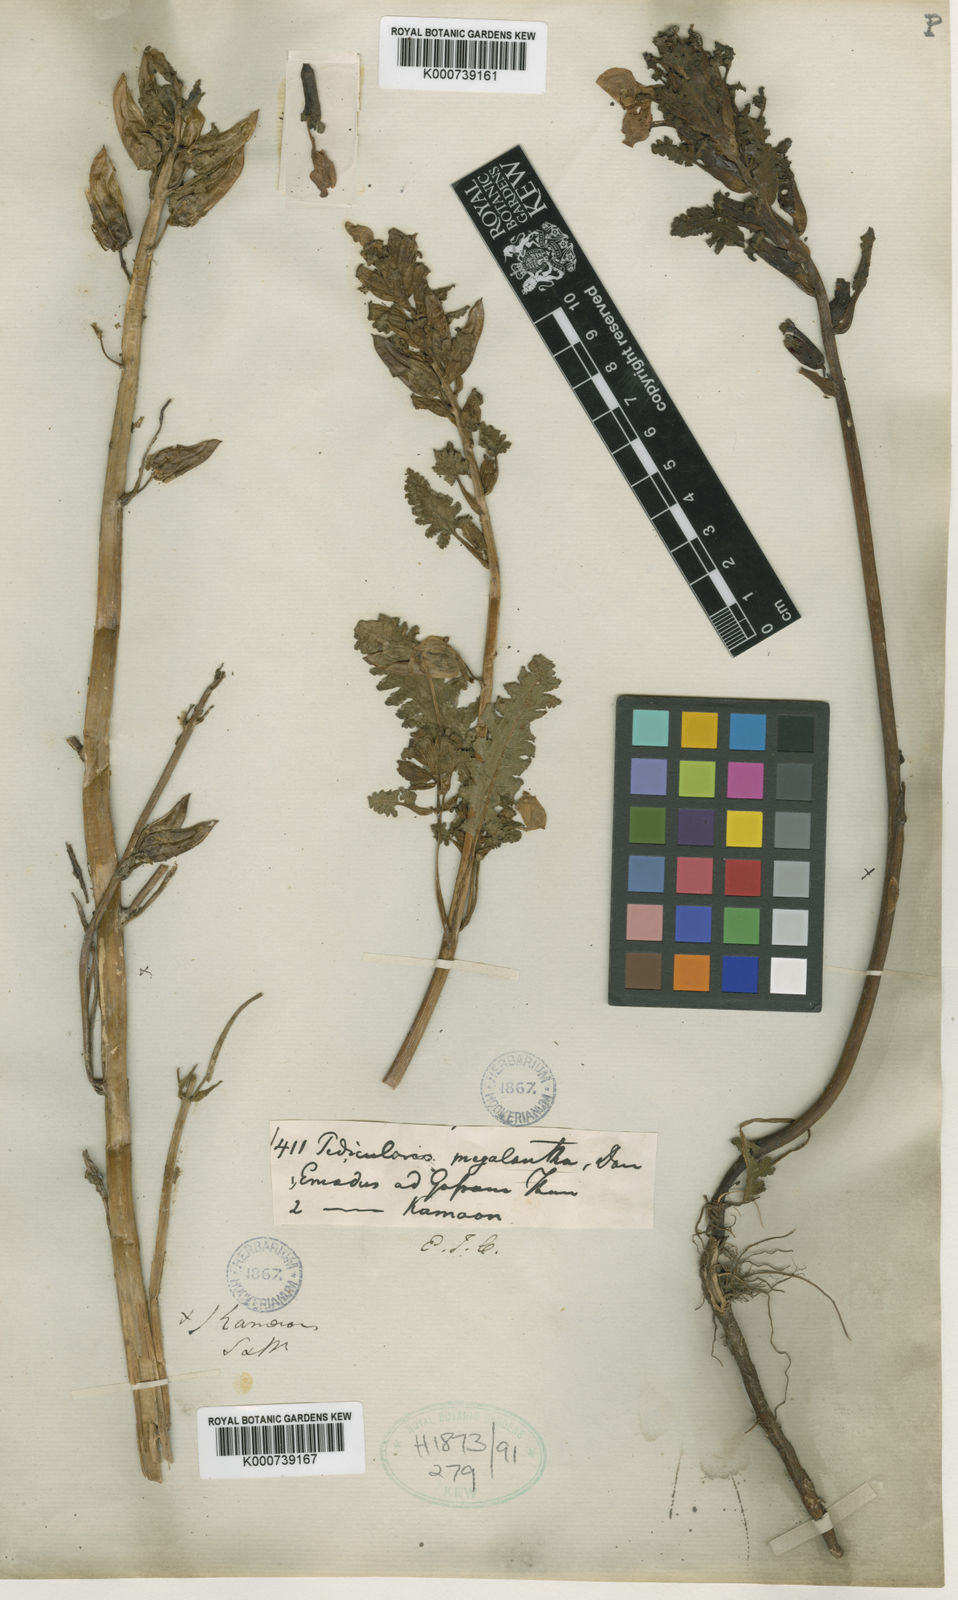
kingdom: Plantae
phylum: Tracheophyta
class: Magnoliopsida
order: Lamiales
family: Orobanchaceae
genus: Pedicularis
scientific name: Pedicularis megalantha
